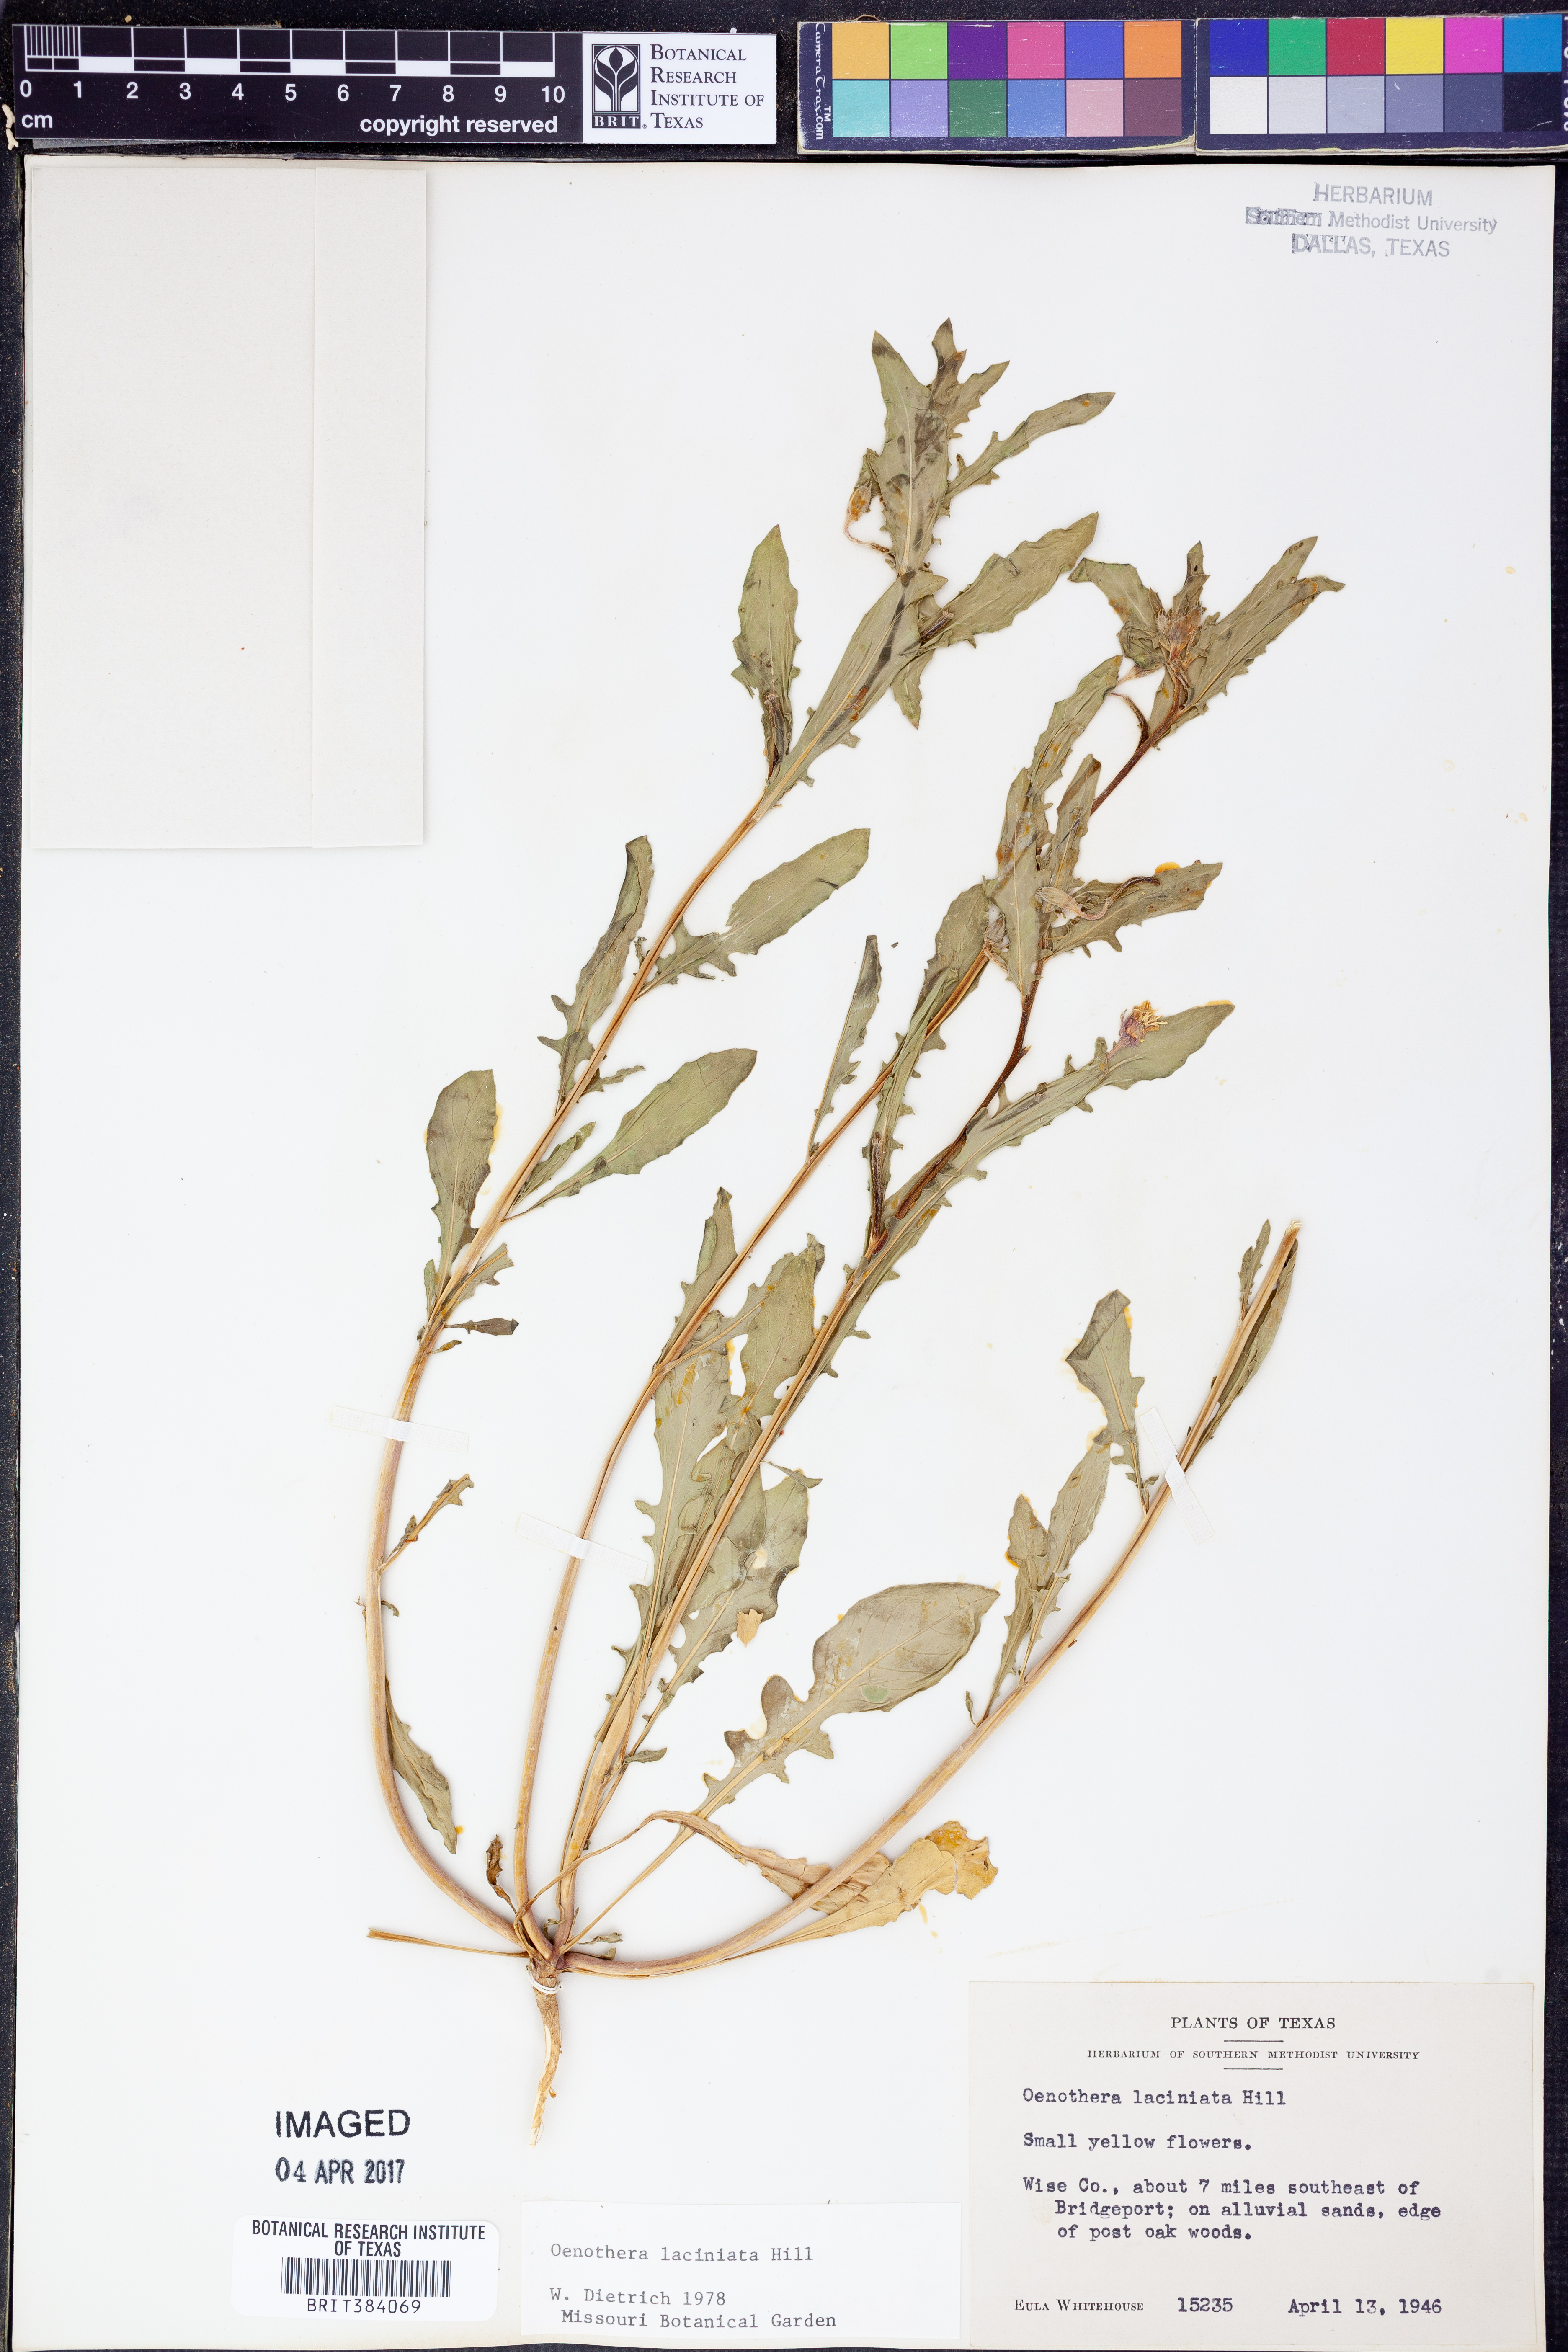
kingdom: Plantae
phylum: Tracheophyta
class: Magnoliopsida
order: Myrtales
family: Onagraceae
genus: Oenothera
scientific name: Oenothera laciniata
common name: Cut-leaved evening-primrose
